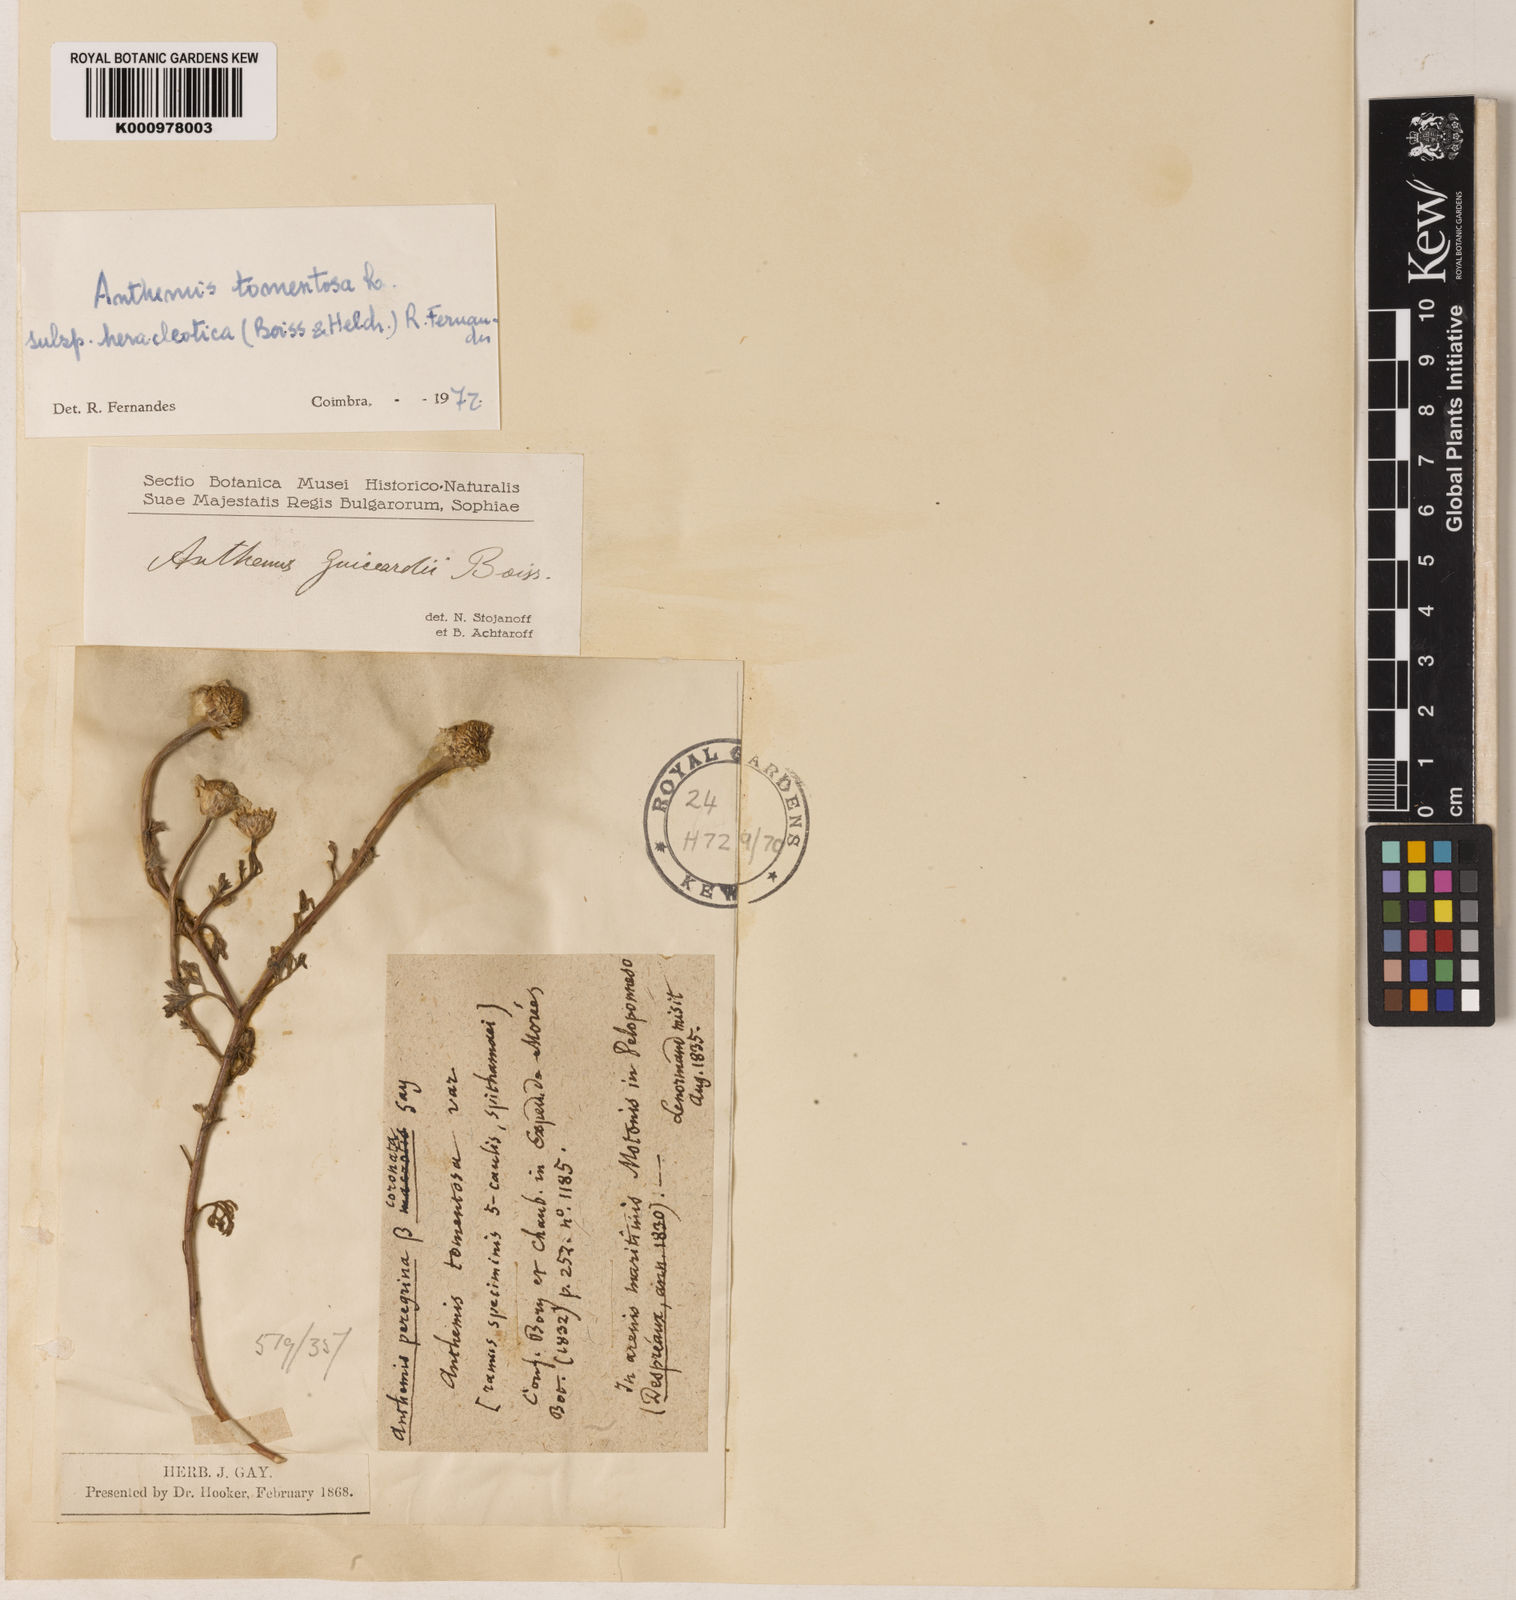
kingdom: Plantae
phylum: Tracheophyta
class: Magnoliopsida
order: Asterales
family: Asteraceae
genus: Anthemis
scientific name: Anthemis tomentosa
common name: Woolly chamomile
